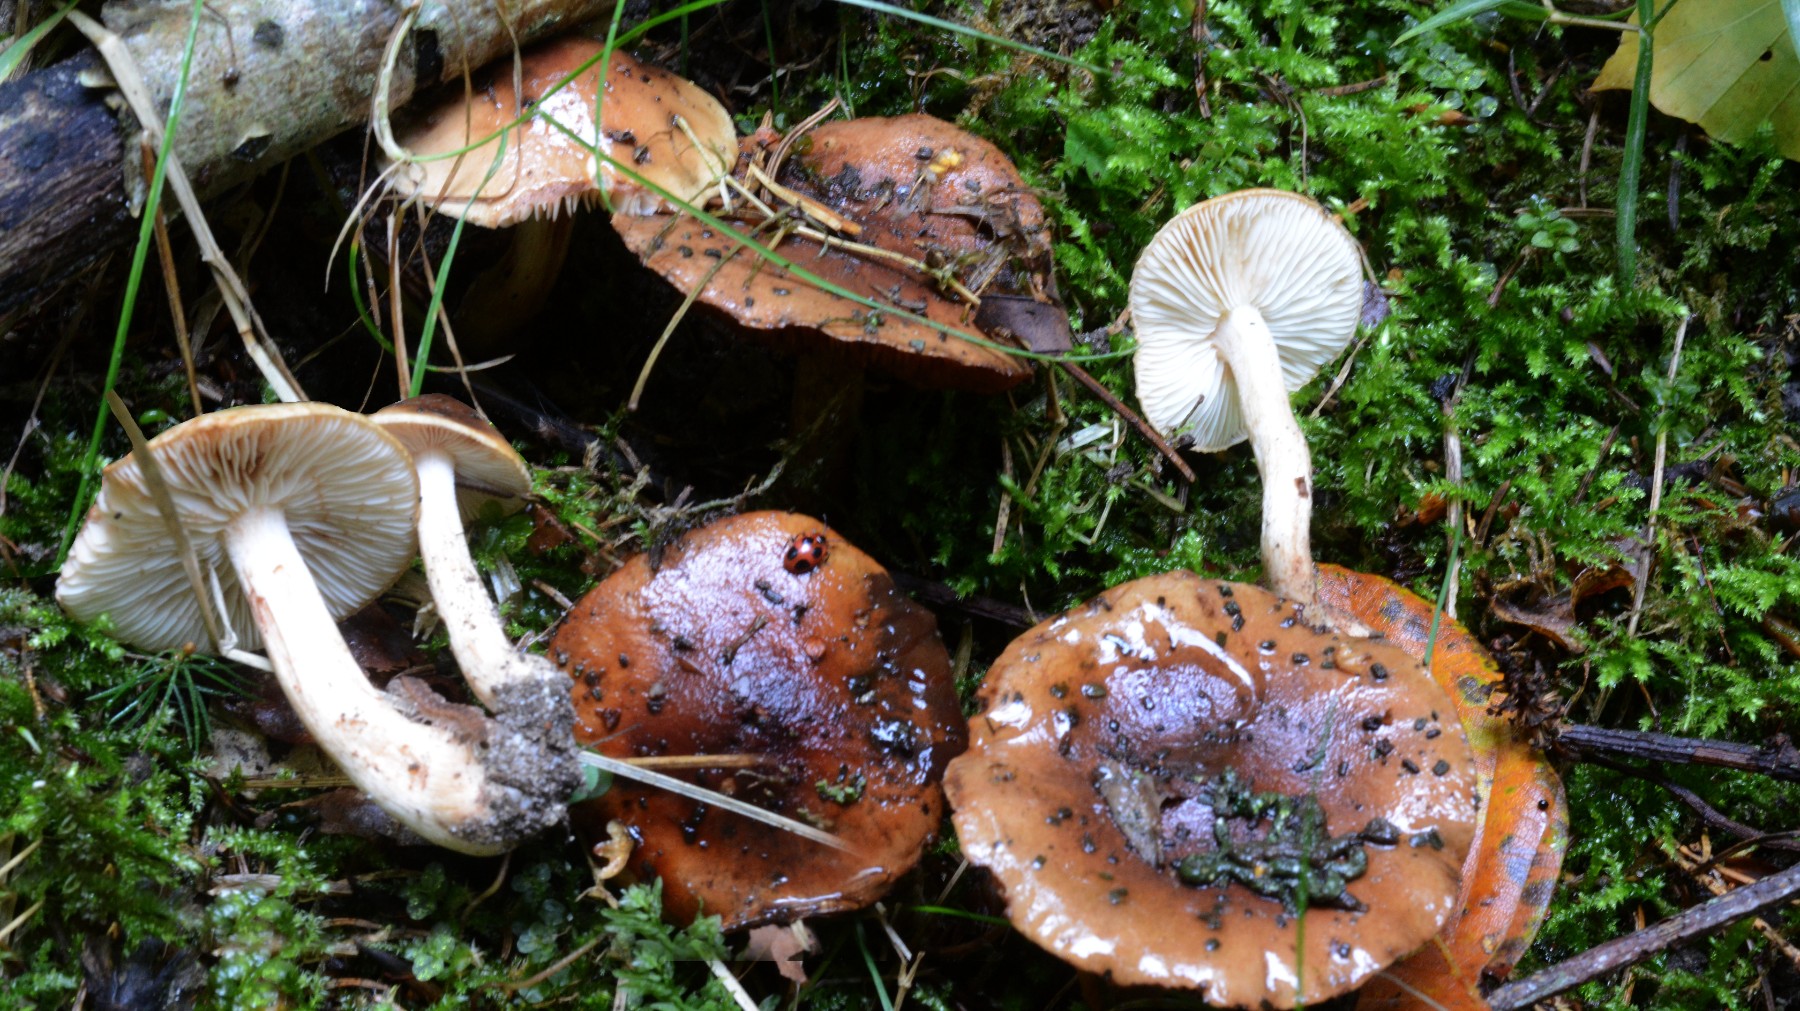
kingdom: Fungi
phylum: Basidiomycota
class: Agaricomycetes
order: Agaricales
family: Tricholomataceae
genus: Tricholoma
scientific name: Tricholoma ustale
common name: sveden ridderhat
